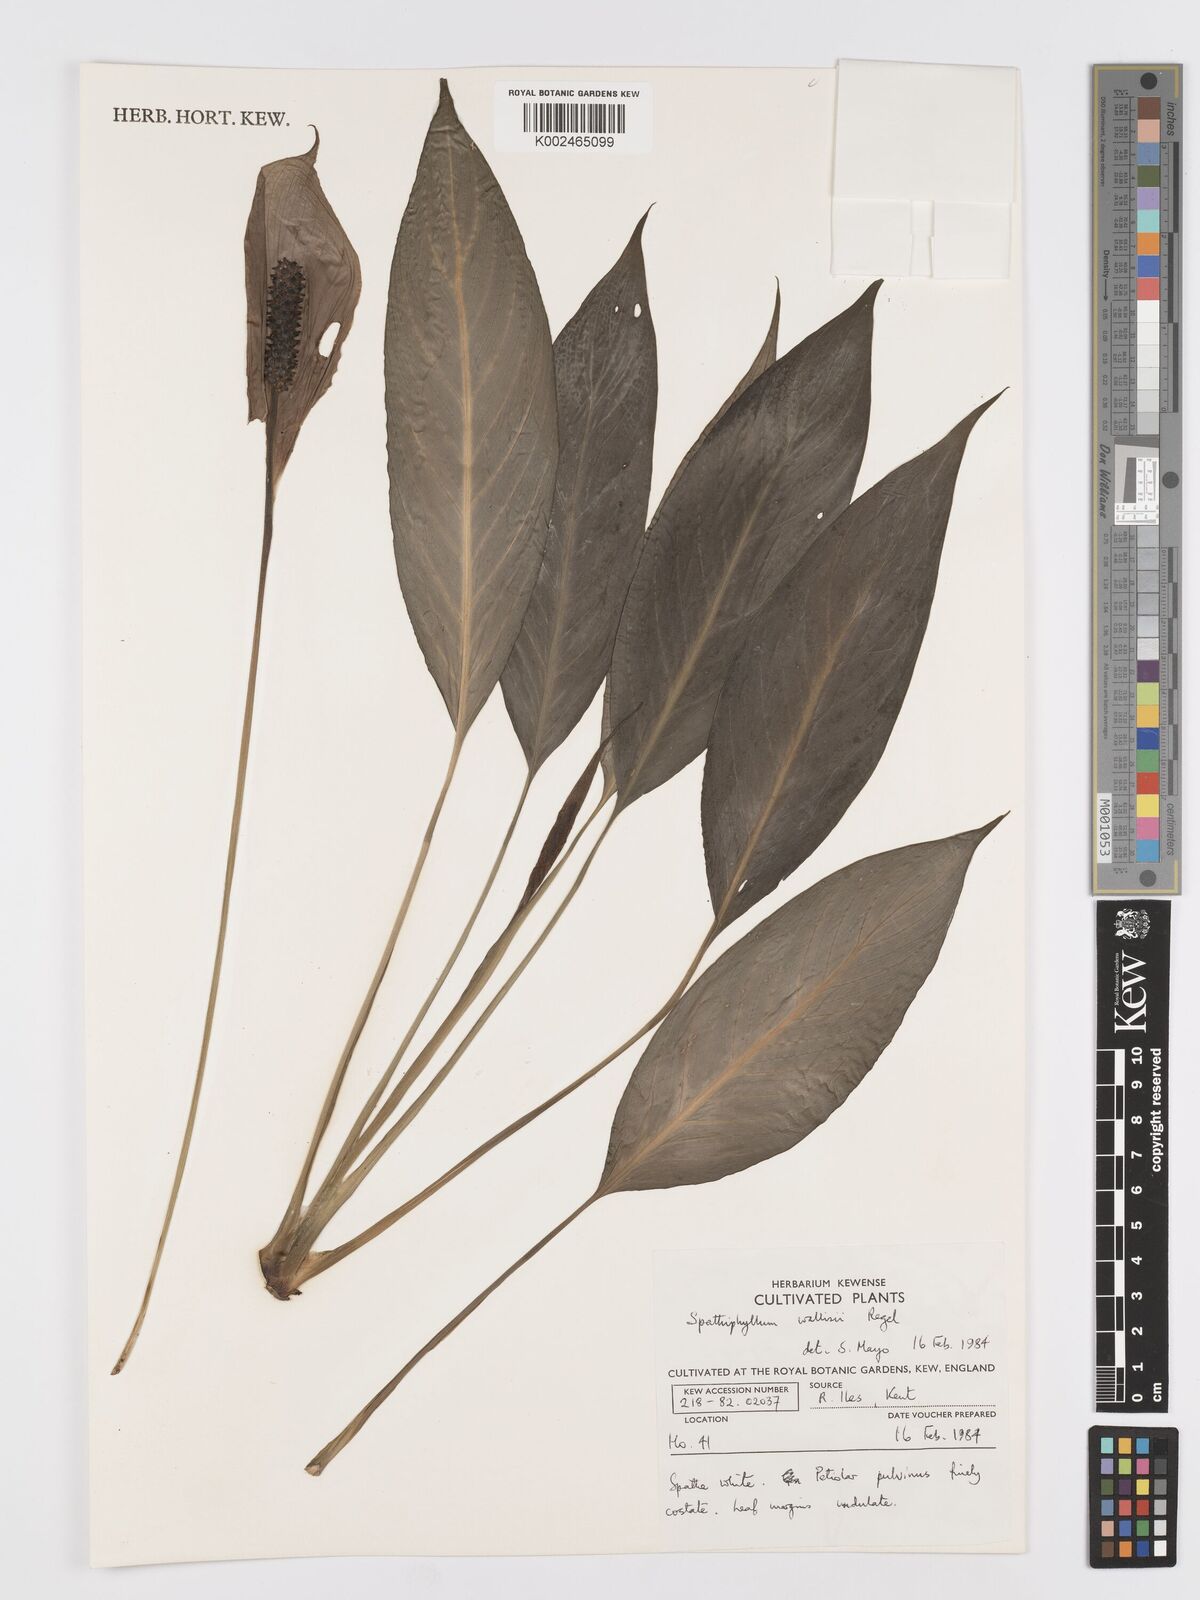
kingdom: Plantae
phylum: Tracheophyta
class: Liliopsida
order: Alismatales
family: Araceae
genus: Spathiphyllum
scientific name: Spathiphyllum wallisii
